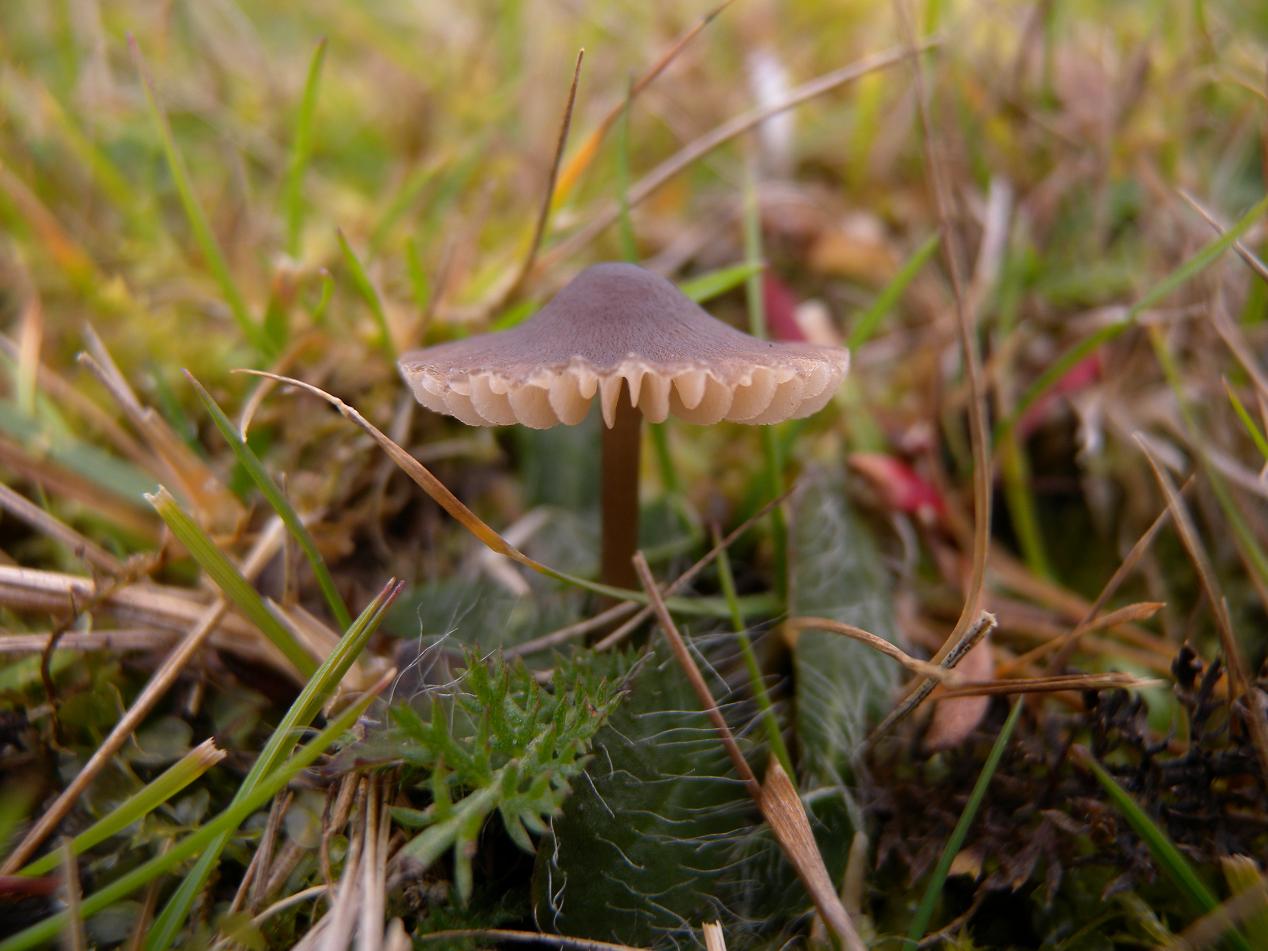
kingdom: Fungi
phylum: Basidiomycota
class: Agaricomycetes
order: Agaricales
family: Mycenaceae
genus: Mycena
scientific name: Mycena filopes
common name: jod-huesvamp
